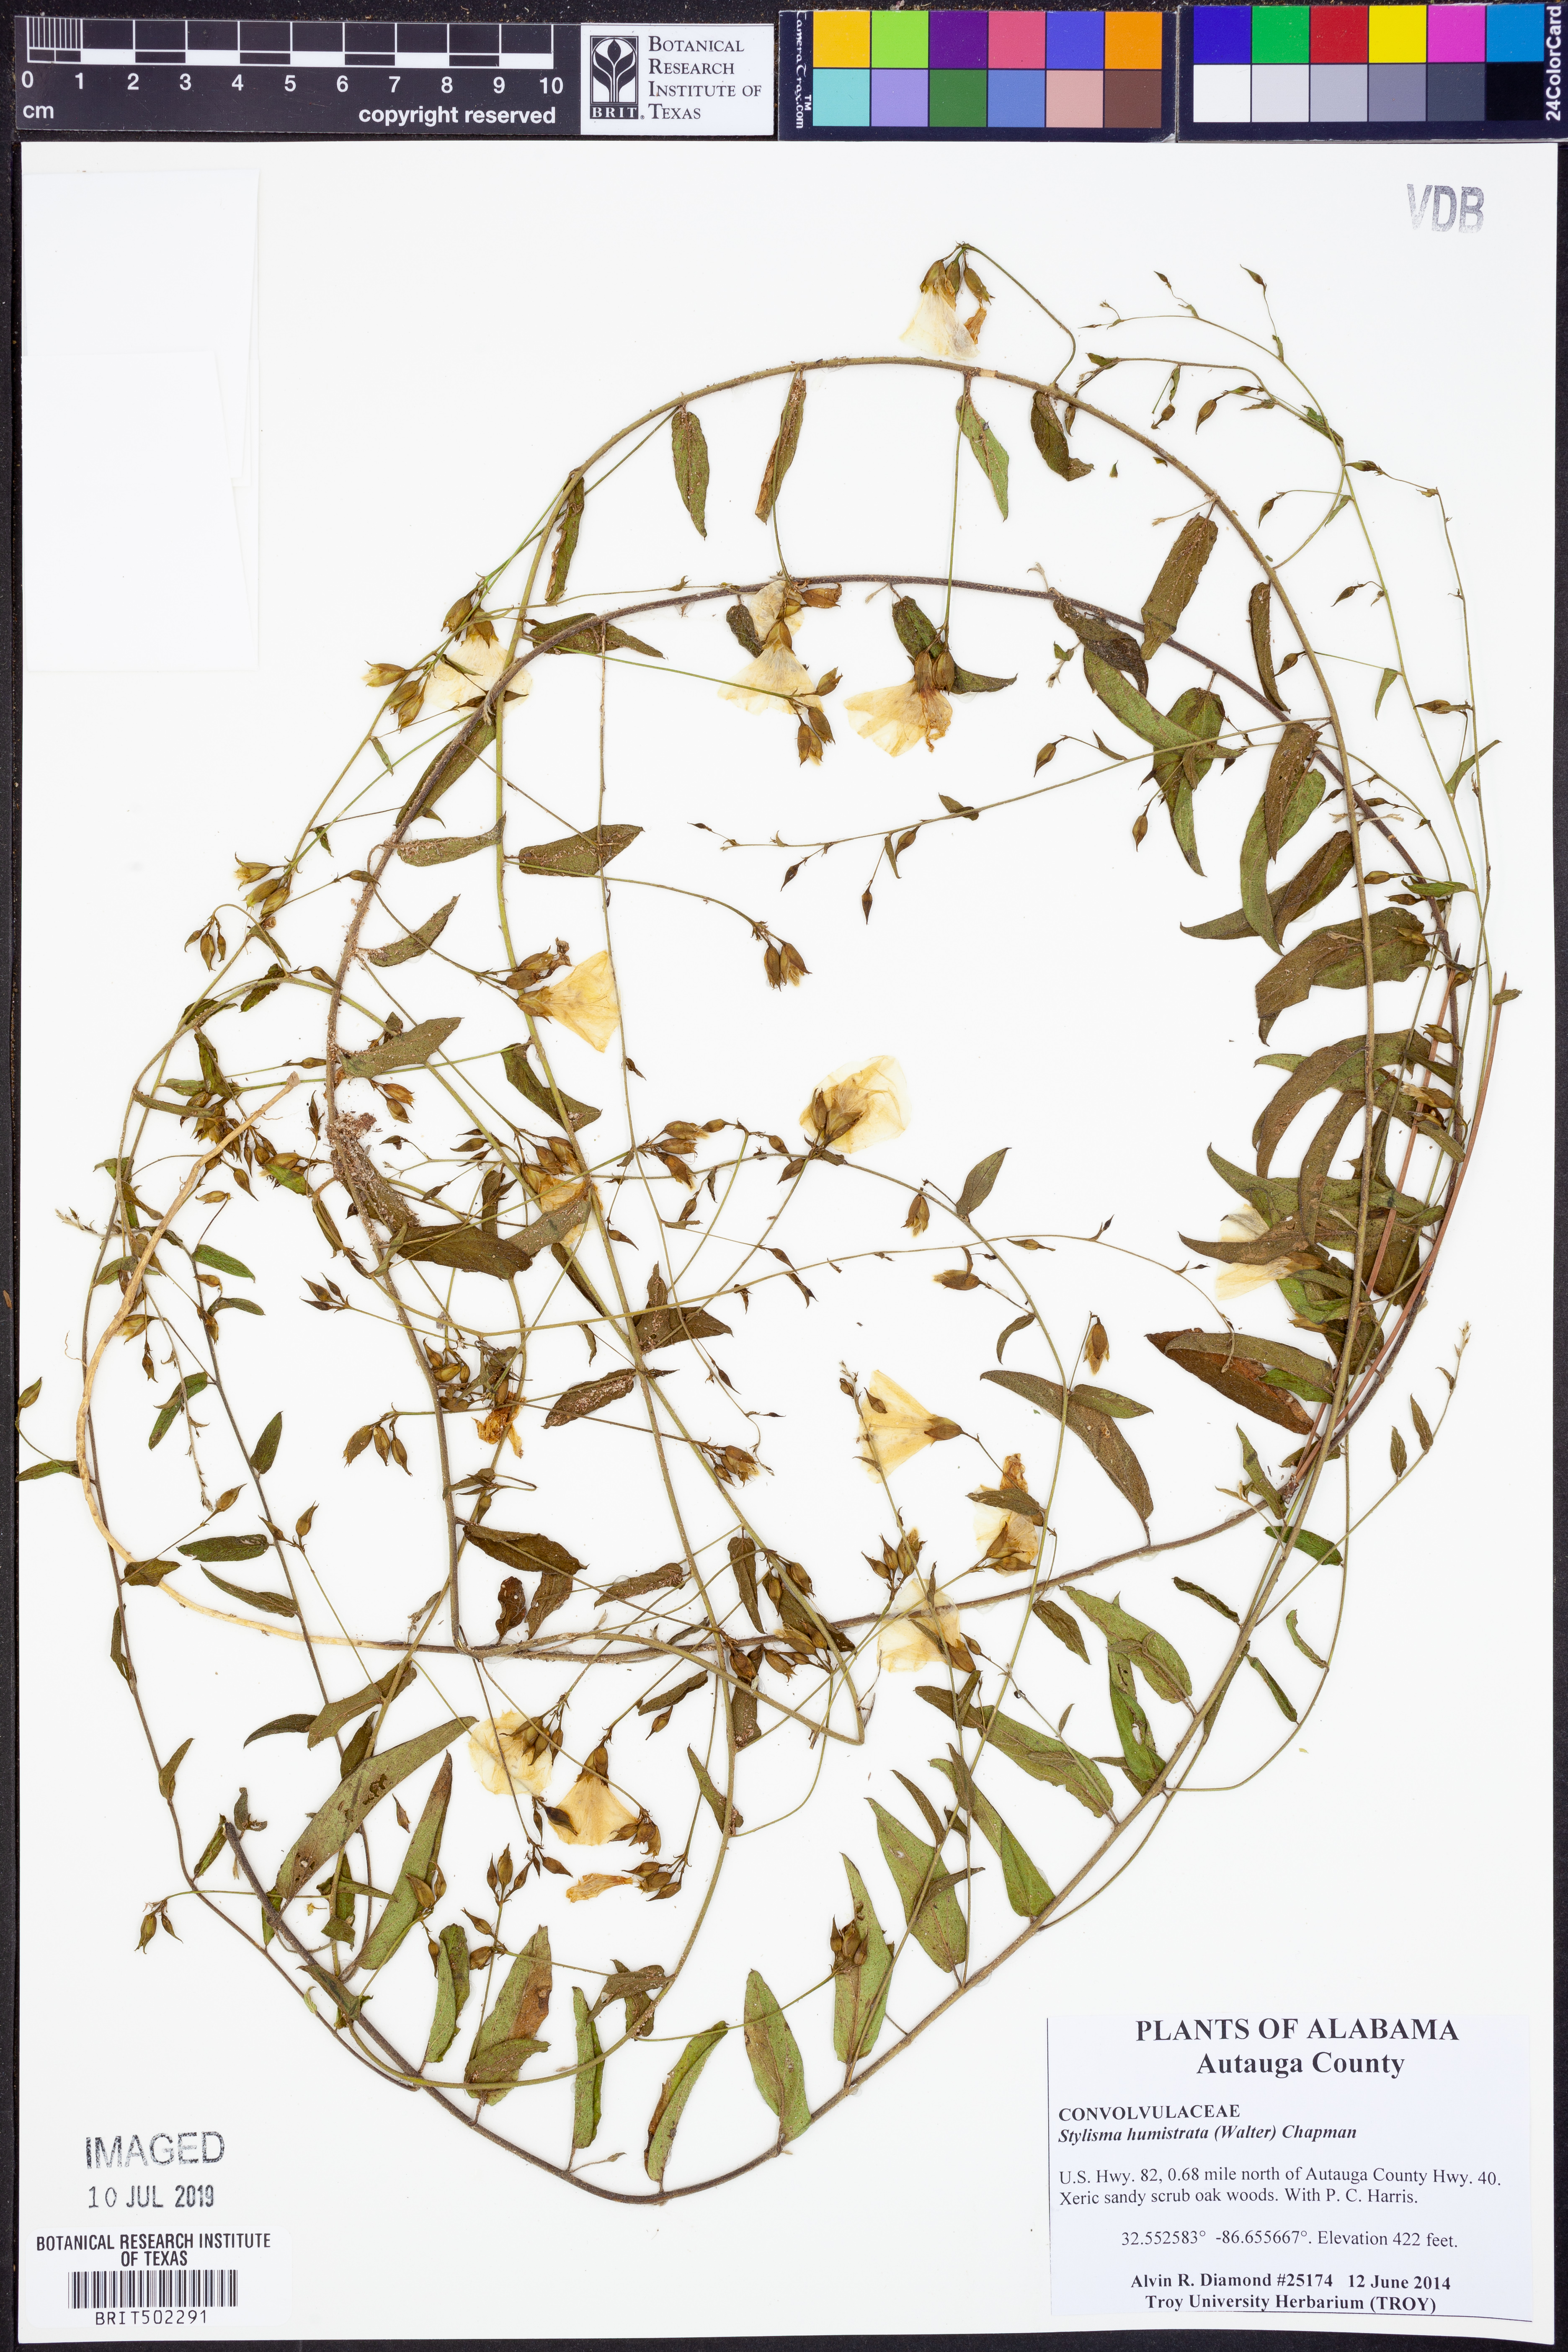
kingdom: Plantae
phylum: Tracheophyta
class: Magnoliopsida
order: Solanales
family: Convolvulaceae
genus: Stylisma
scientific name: Stylisma humistrata
